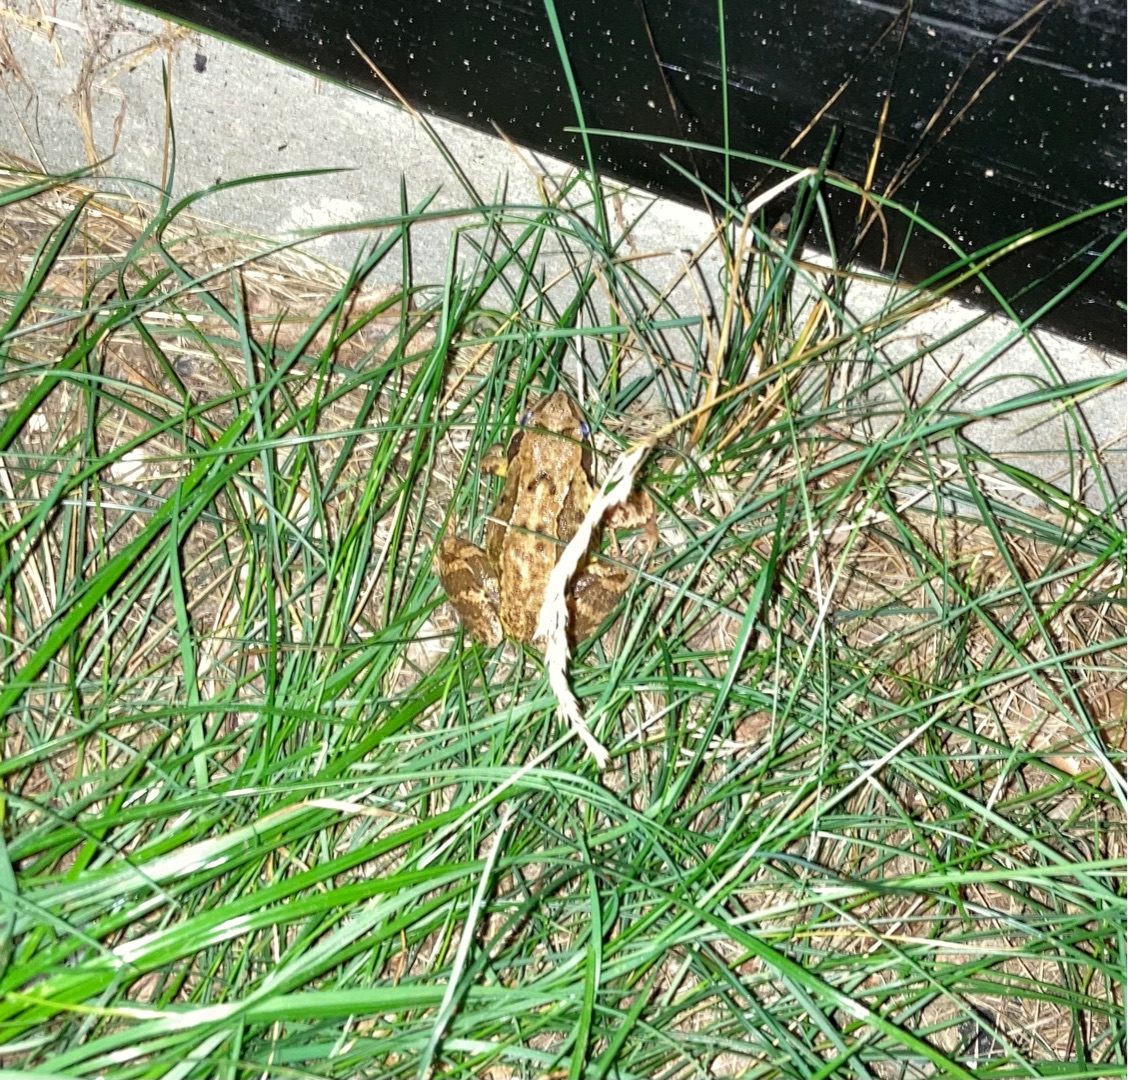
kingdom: Animalia
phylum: Chordata
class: Amphibia
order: Anura
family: Ranidae
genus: Rana
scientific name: Rana temporaria
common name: Butsnudet frø
